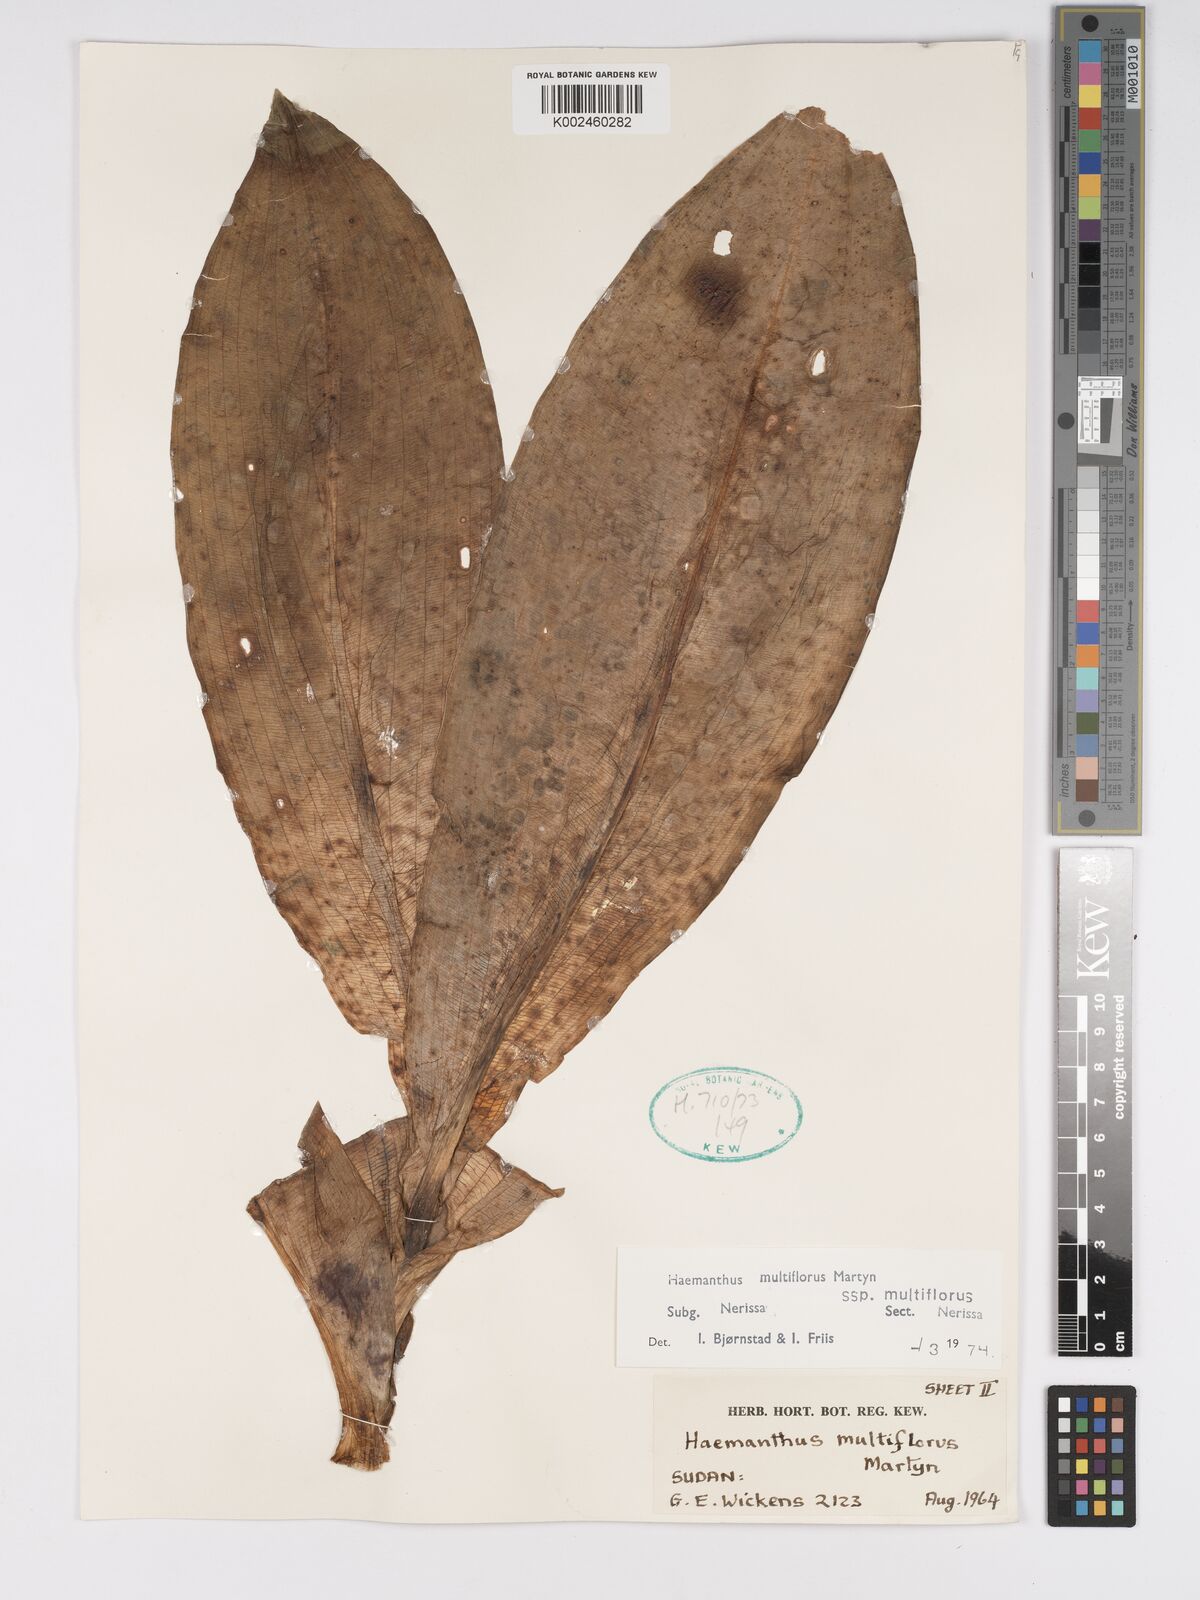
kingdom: Plantae
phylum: Tracheophyta
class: Liliopsida
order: Asparagales
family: Amaryllidaceae
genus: Scadoxus
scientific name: Scadoxus multiflorus
